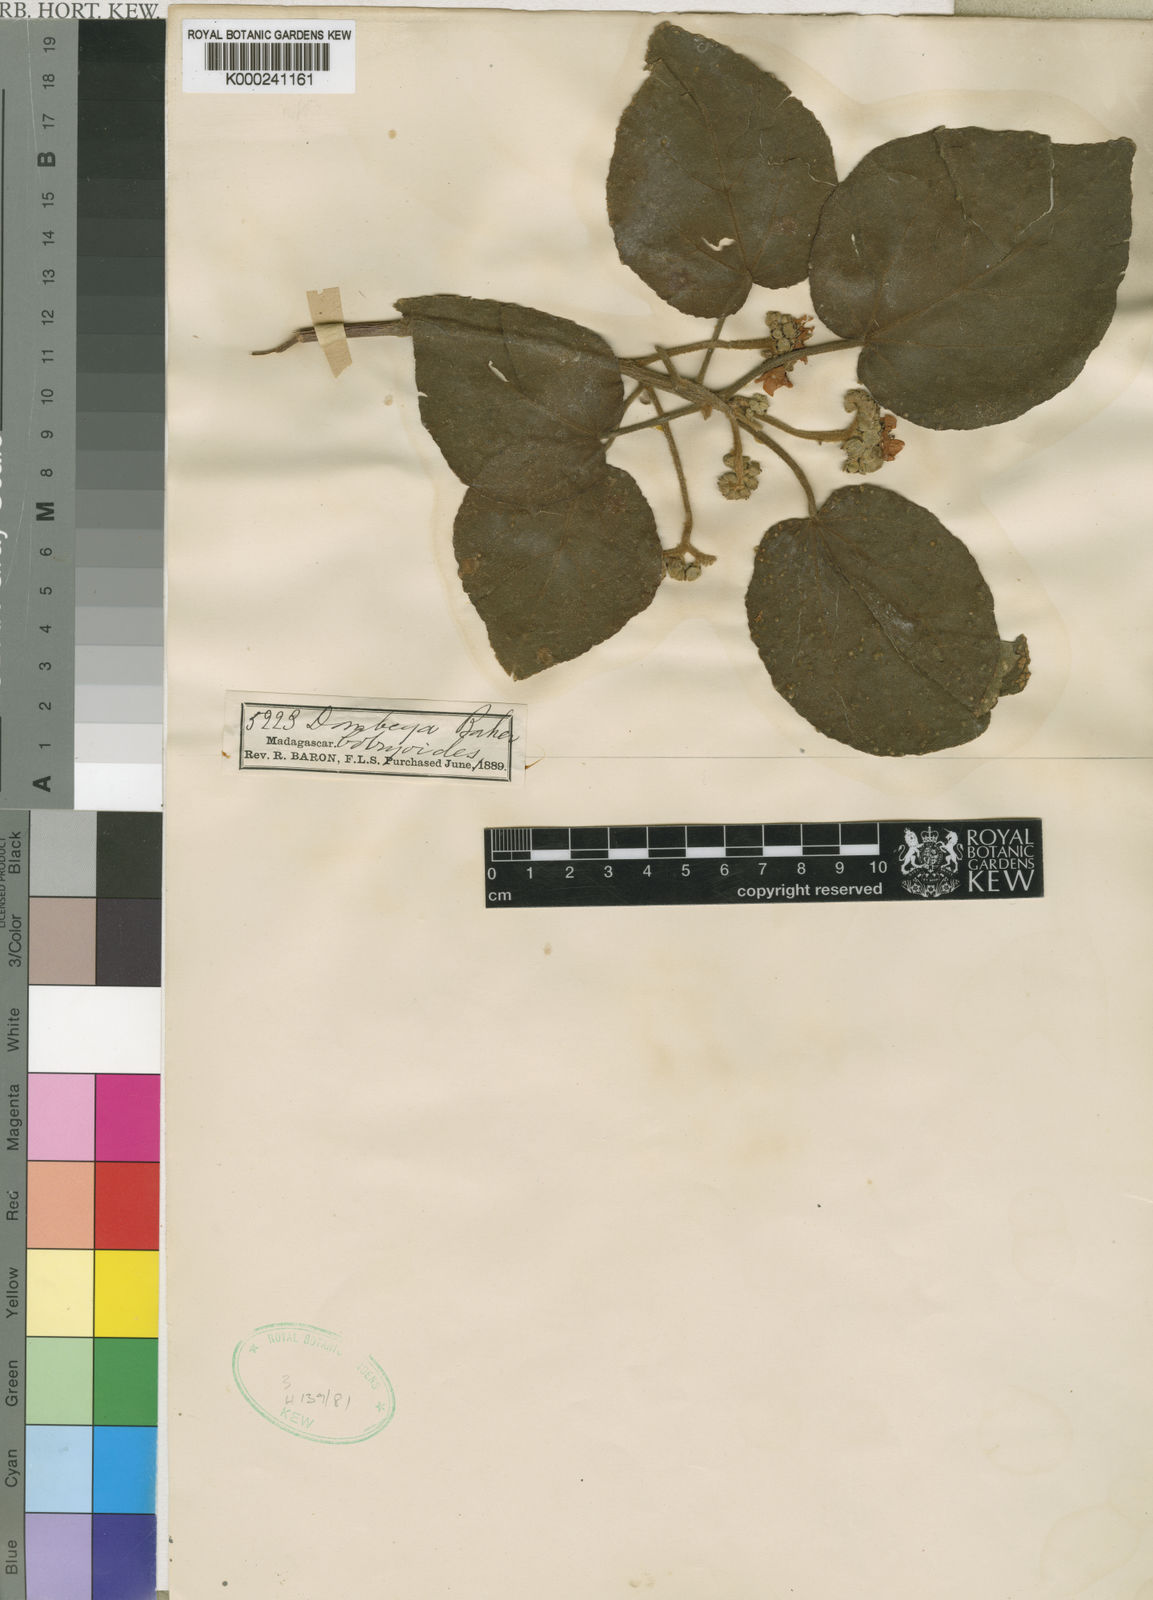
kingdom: Plantae
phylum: Tracheophyta
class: Magnoliopsida
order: Malvales
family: Malvaceae
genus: Dombeya
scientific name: Dombeya greveana
